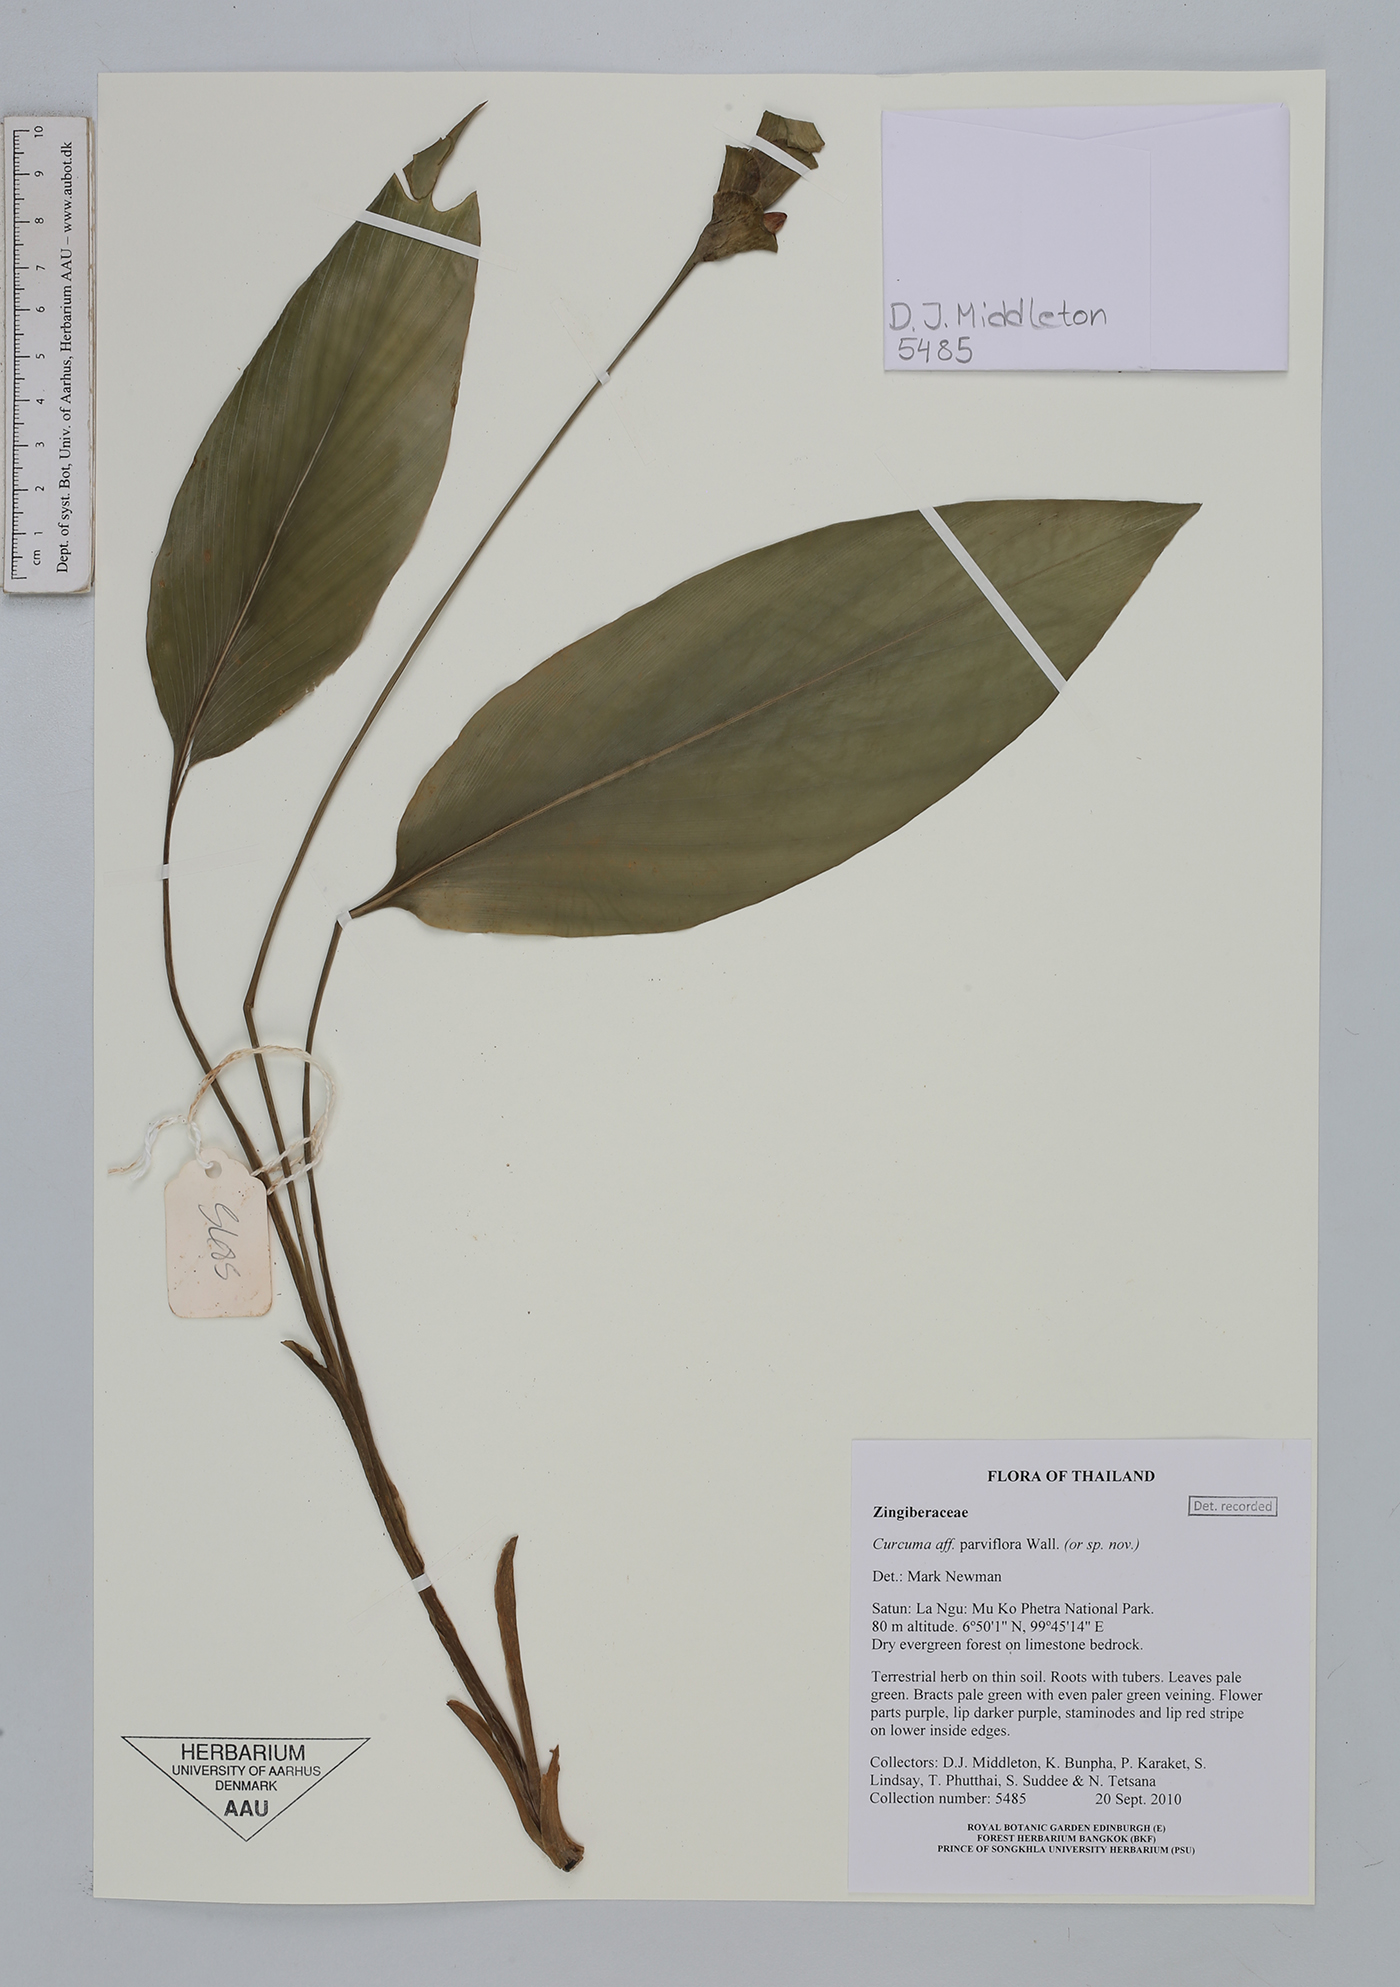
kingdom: Plantae
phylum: Tracheophyta
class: Liliopsida
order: Zingiberales
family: Zingiberaceae
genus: Curcuma
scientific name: Curcuma parviflora
